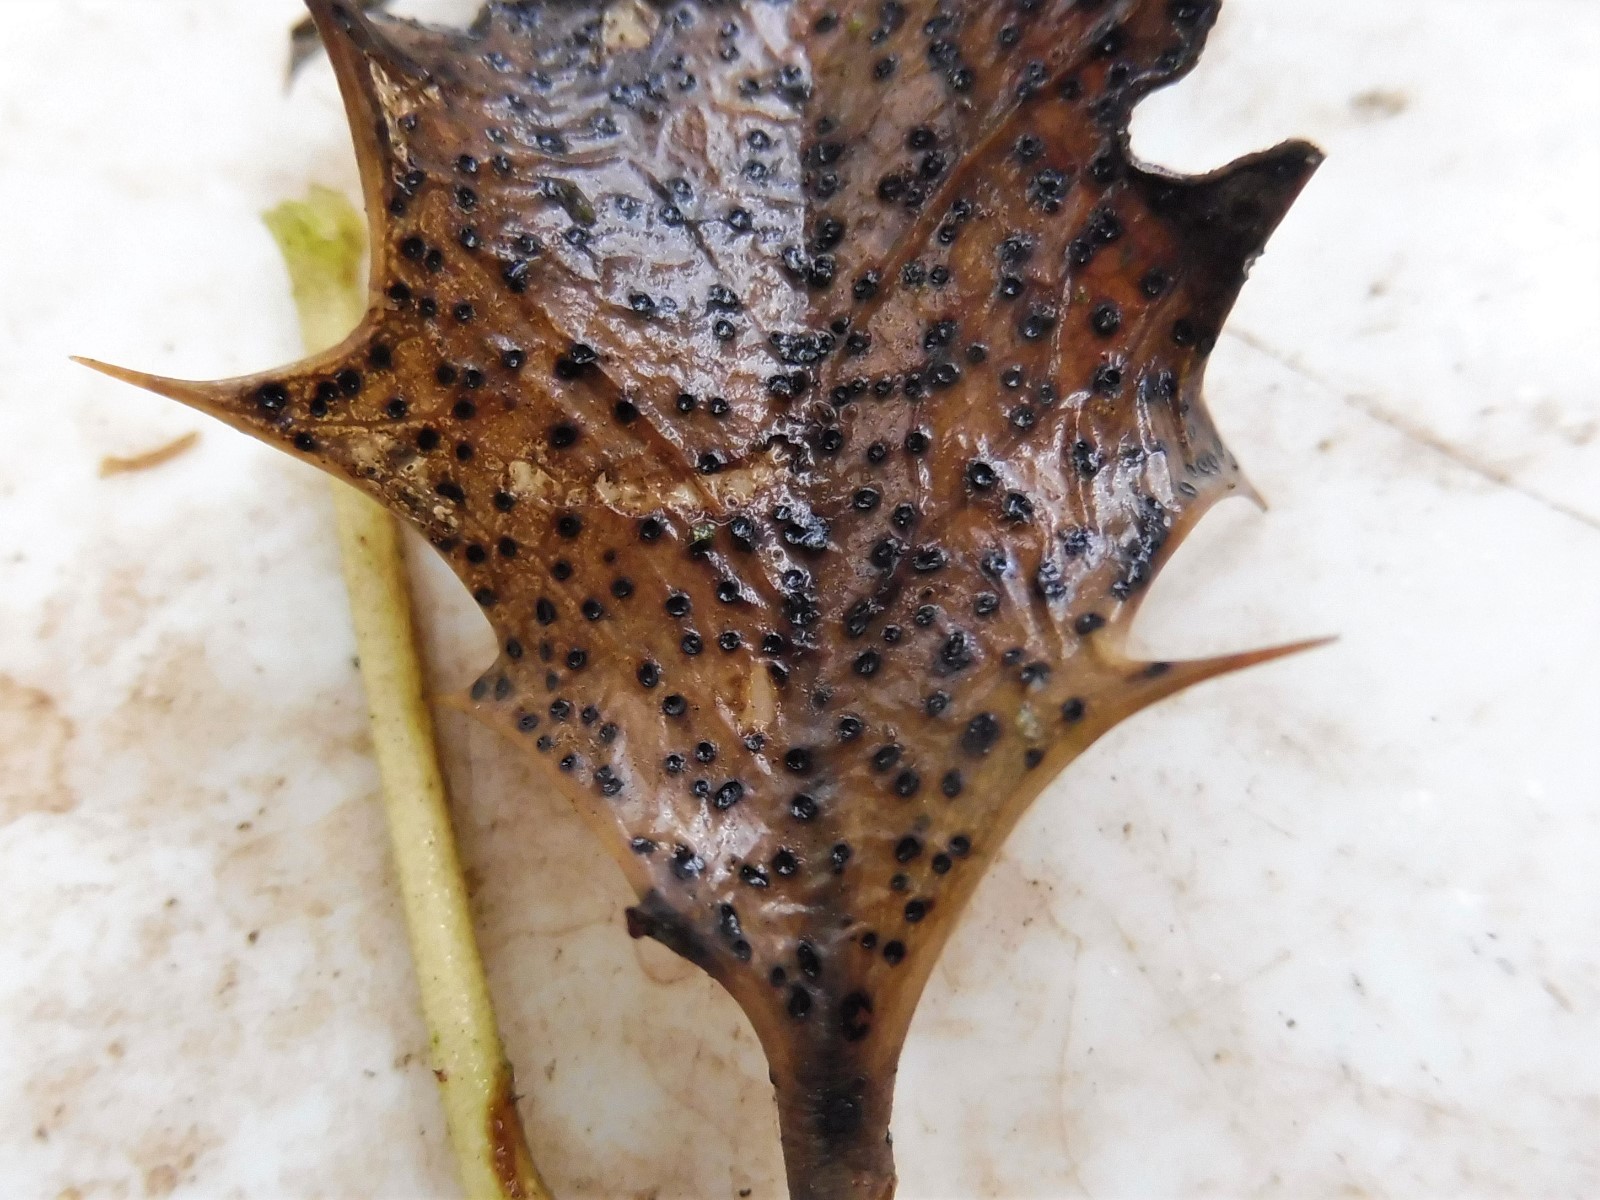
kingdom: Fungi
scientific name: Fungi
